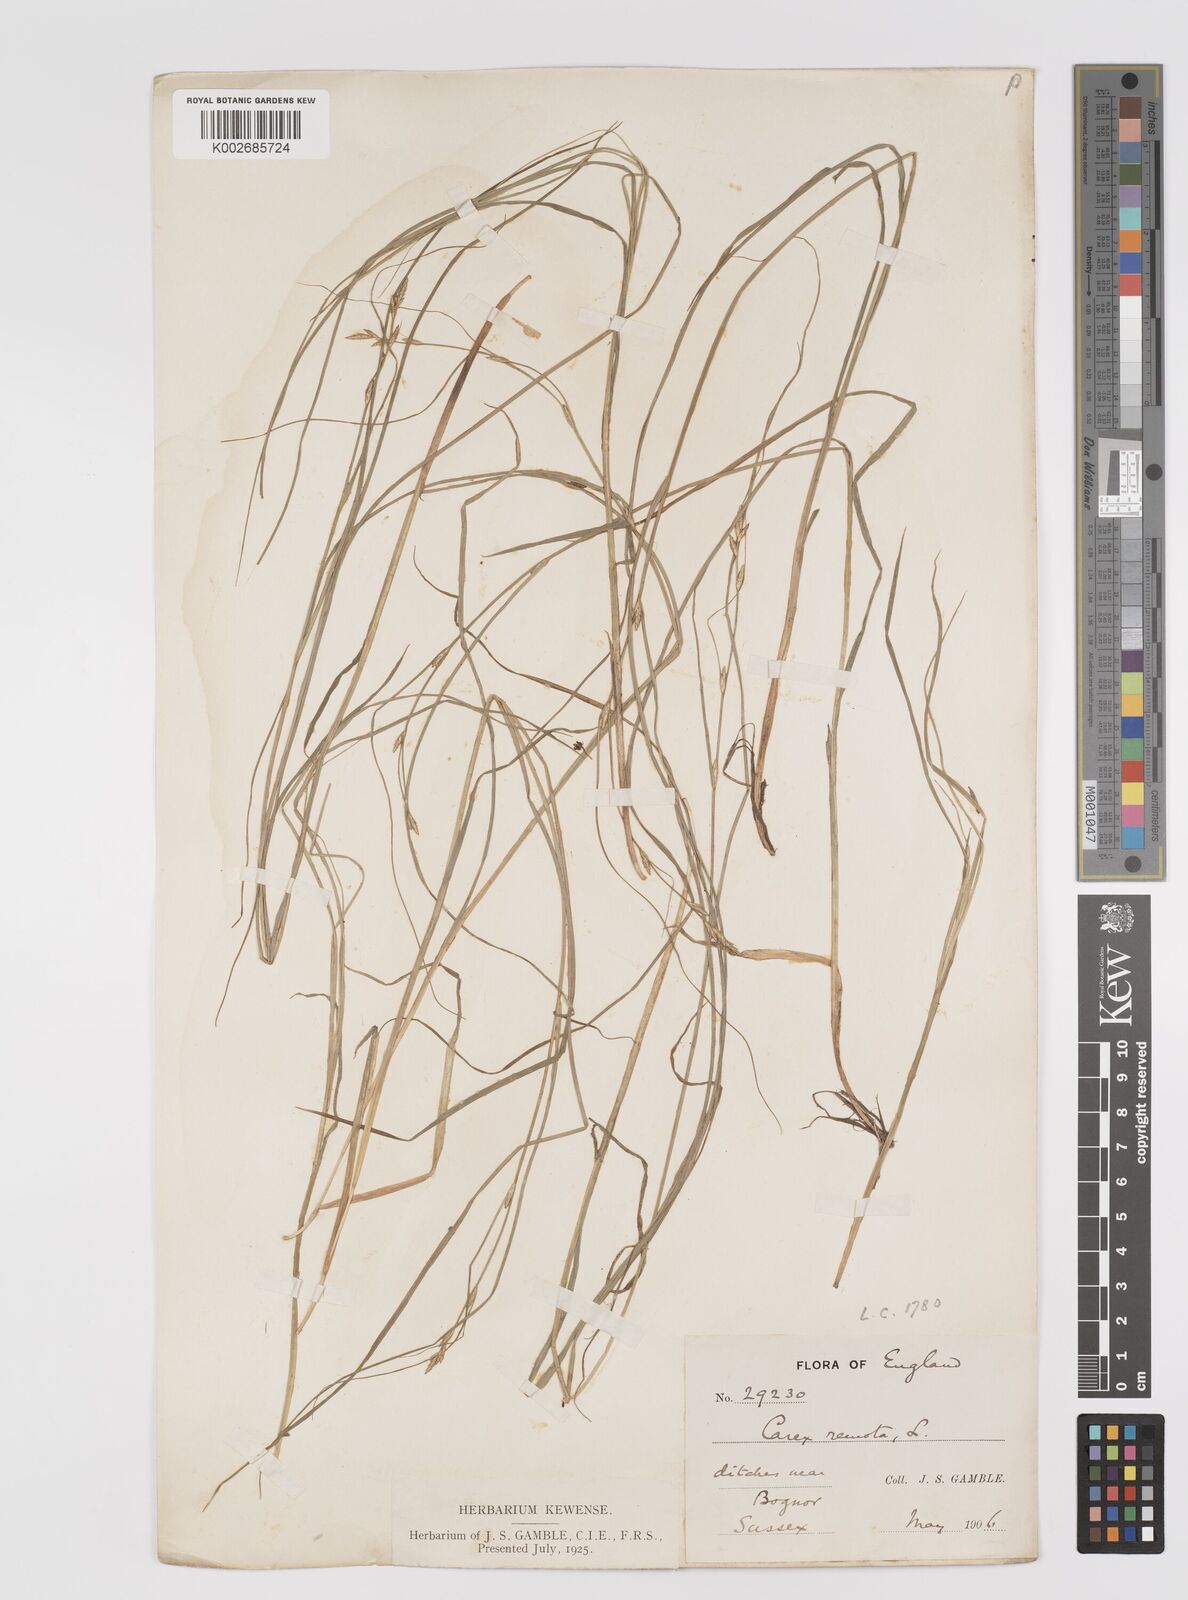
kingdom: Plantae
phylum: Tracheophyta
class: Liliopsida
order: Poales
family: Cyperaceae
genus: Carex
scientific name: Carex remota
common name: Remote sedge
